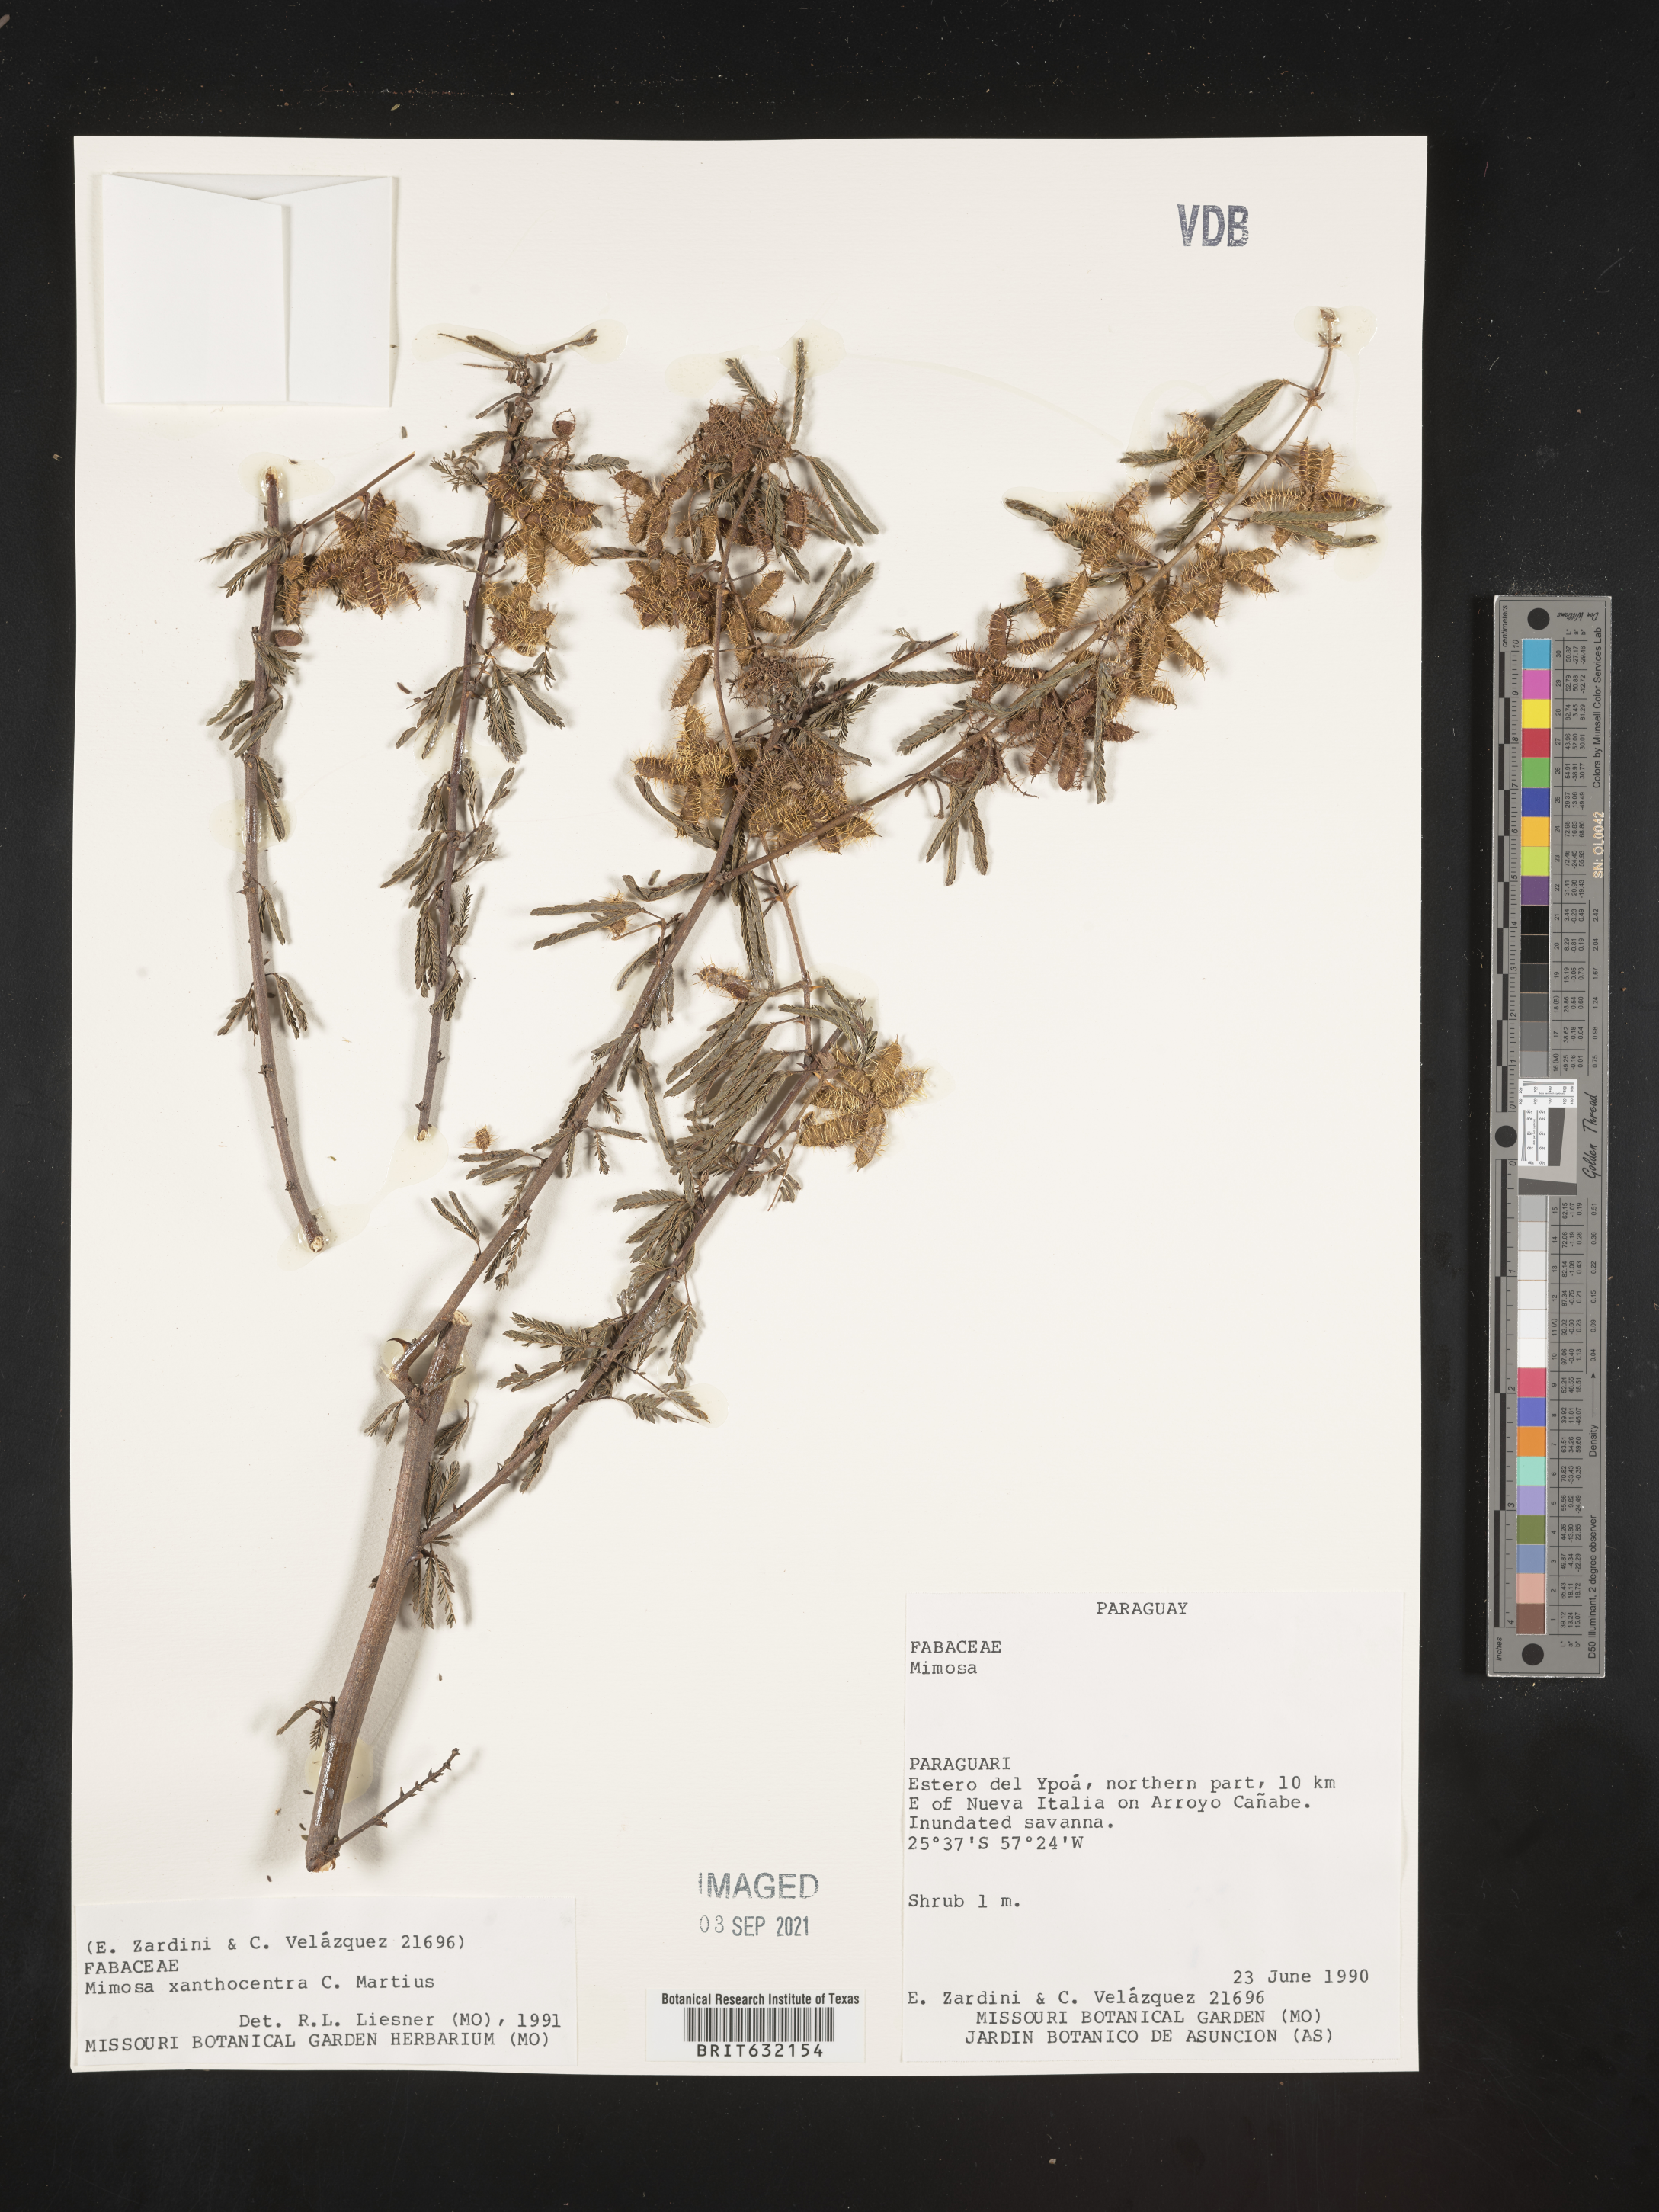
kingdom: Plantae
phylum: Tracheophyta
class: Magnoliopsida
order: Fabales
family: Fabaceae
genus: Mimosa
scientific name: Mimosa
